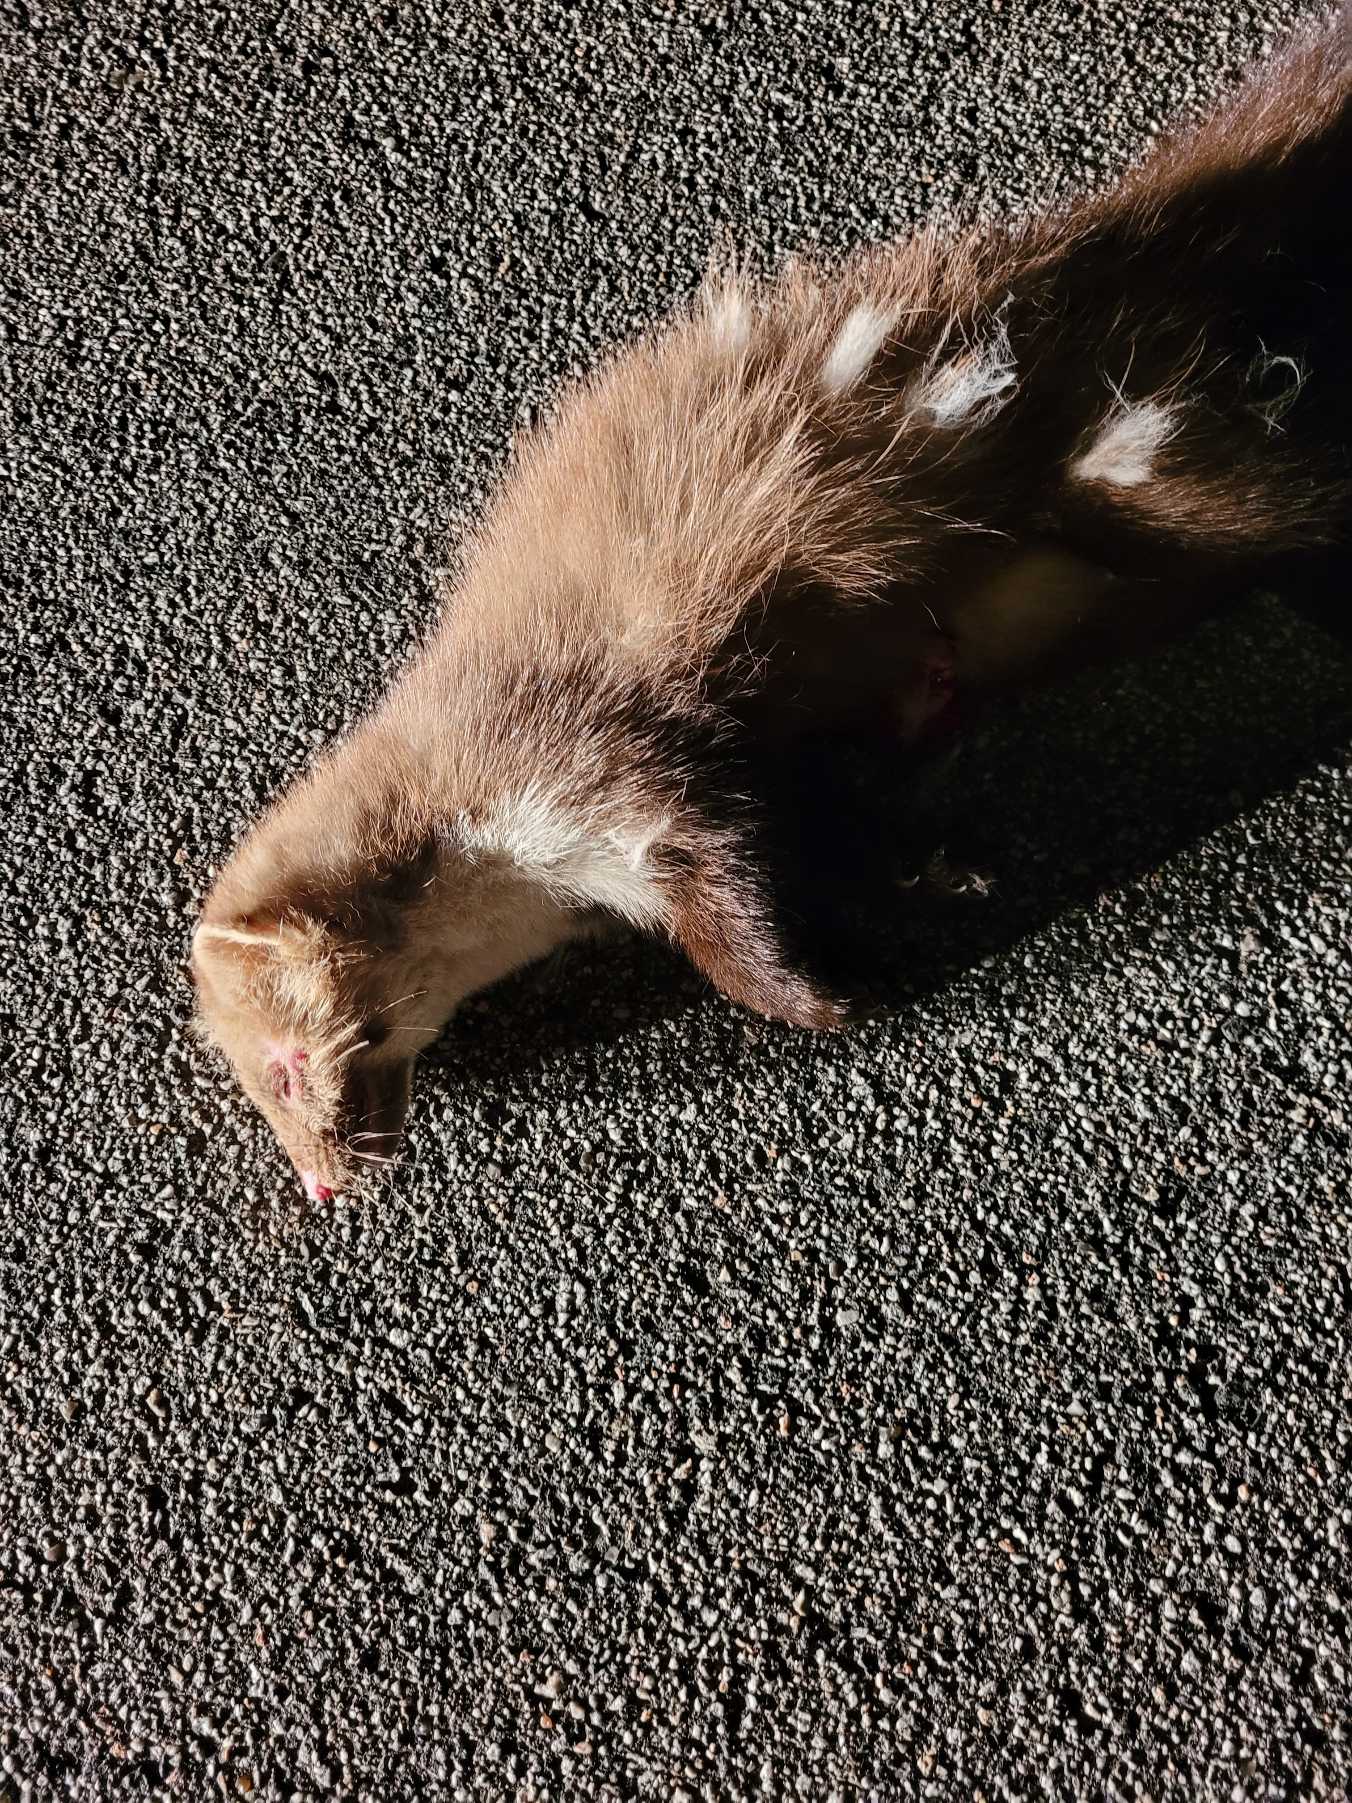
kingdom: Animalia
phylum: Chordata
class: Mammalia
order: Carnivora
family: Mustelidae
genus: Martes
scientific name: Martes foina
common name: Husmår
